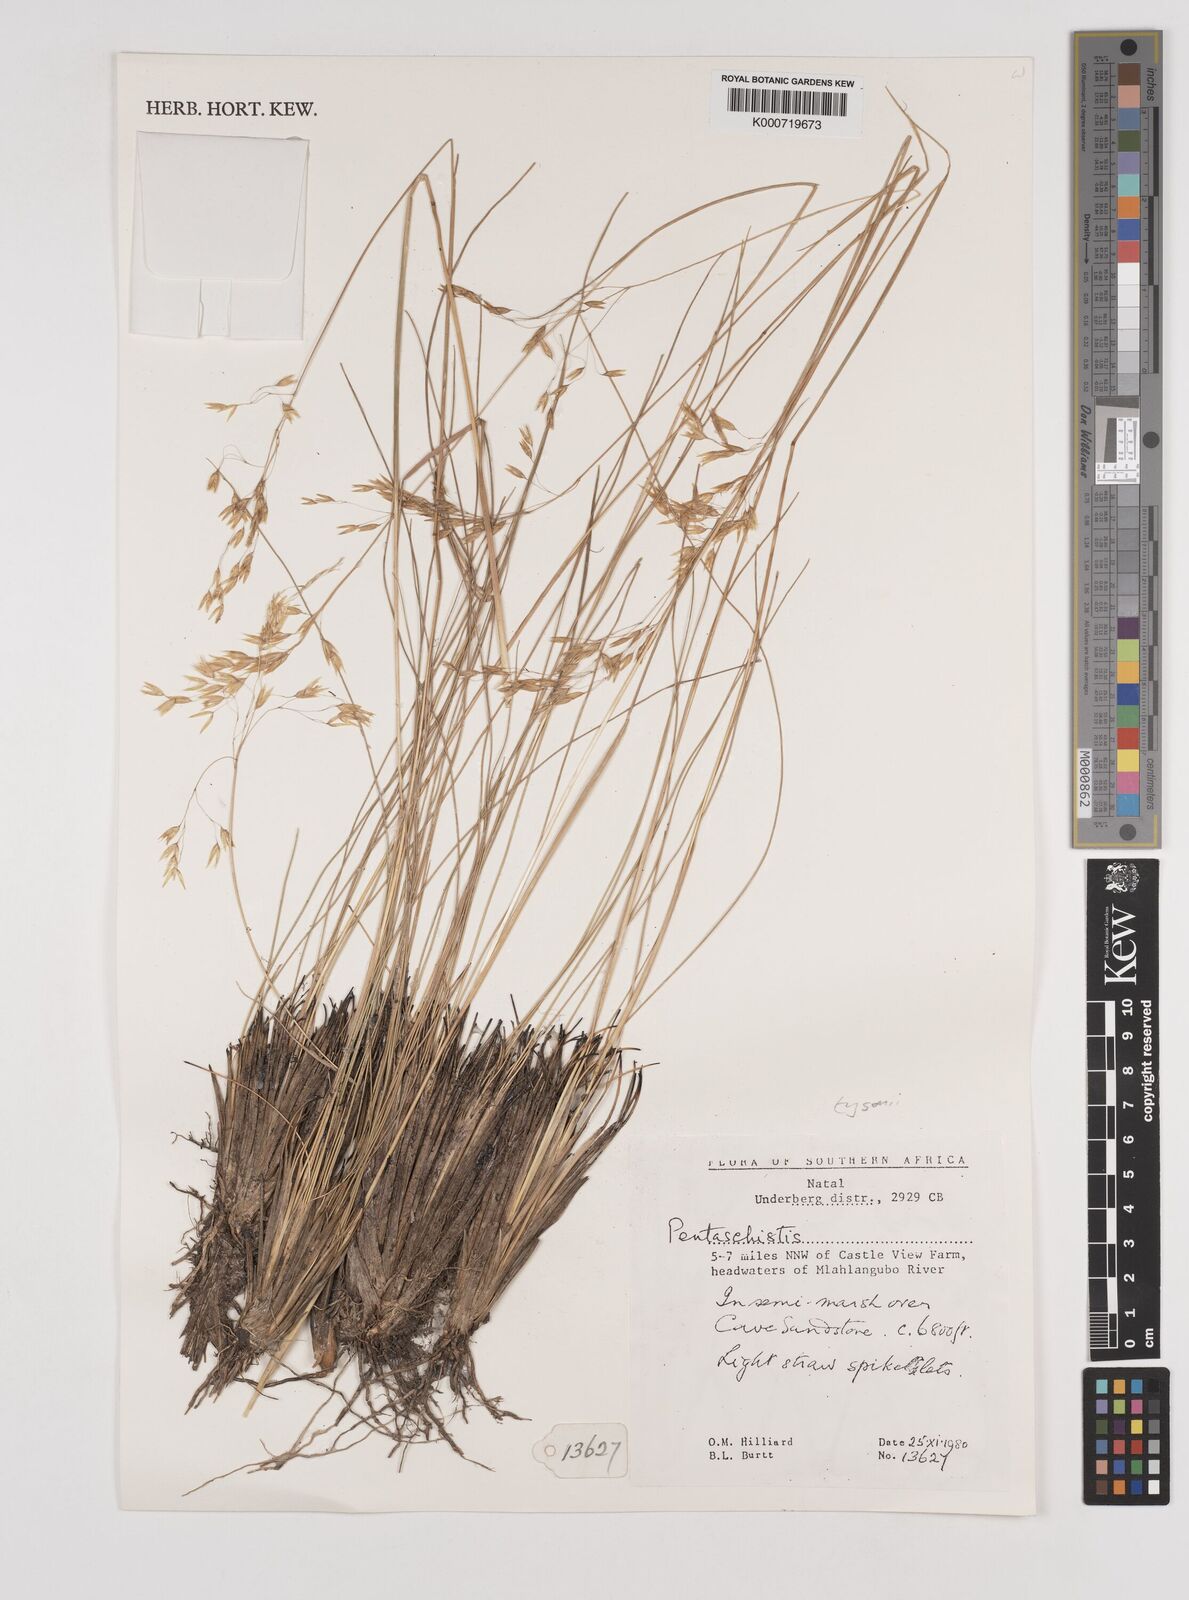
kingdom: Plantae
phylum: Tracheophyta
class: Liliopsida
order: Poales
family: Poaceae
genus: Pentameris
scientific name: Pentameris tysonii
